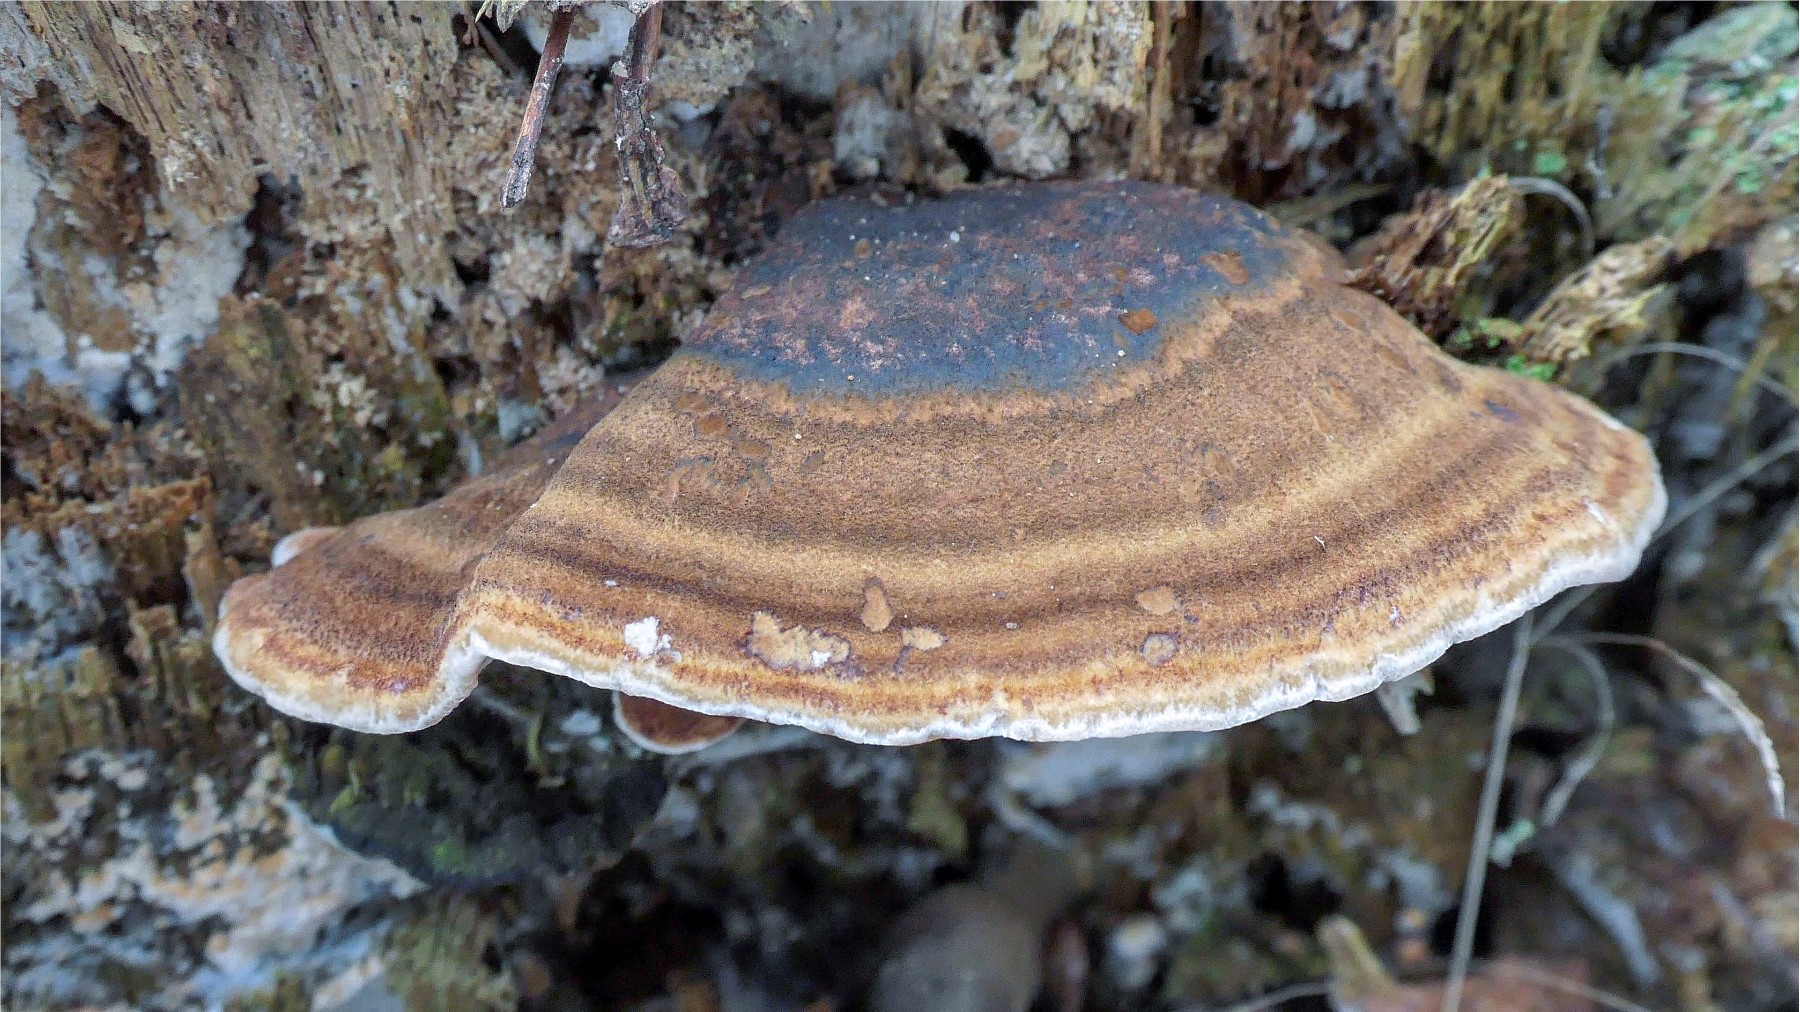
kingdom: Fungi
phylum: Basidiomycota
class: Agaricomycetes
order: Polyporales
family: Ischnodermataceae
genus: Ischnoderma
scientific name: Ischnoderma benzoinum
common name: gran-tjæreporesvamp
